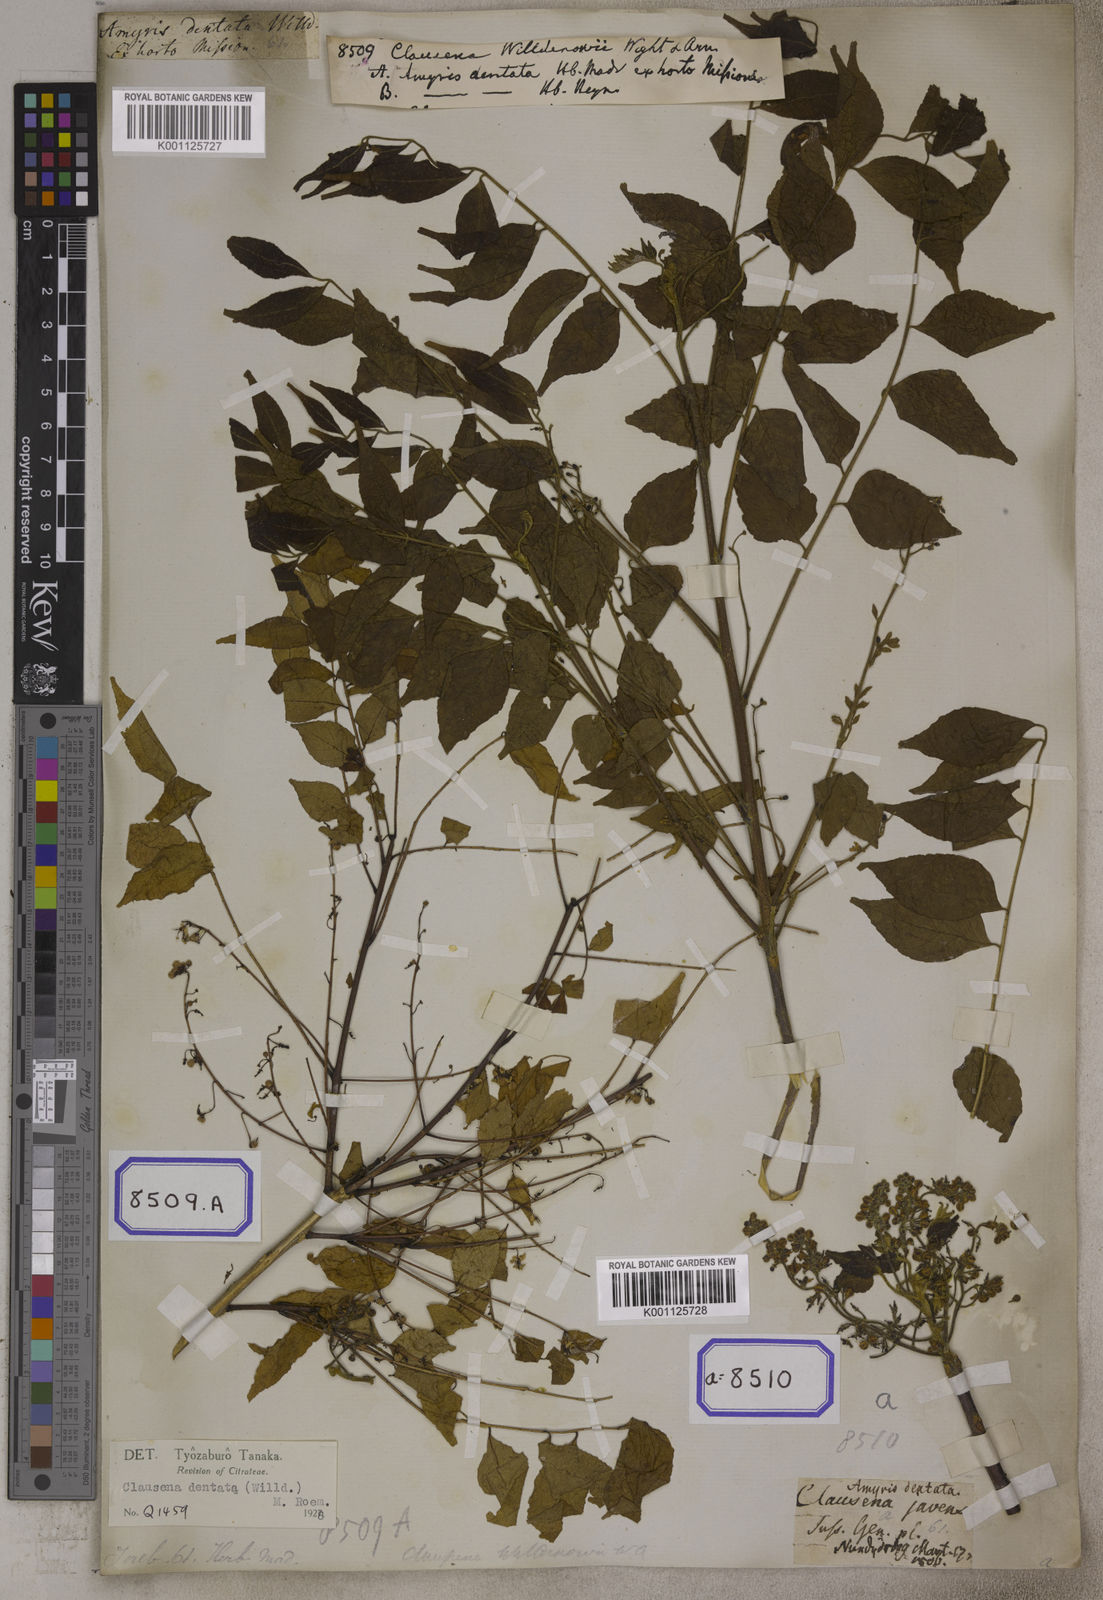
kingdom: Plantae
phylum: Tracheophyta
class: Magnoliopsida
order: Sapindales
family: Rutaceae
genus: Clausena
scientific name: Clausena anisata
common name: Horsewood
